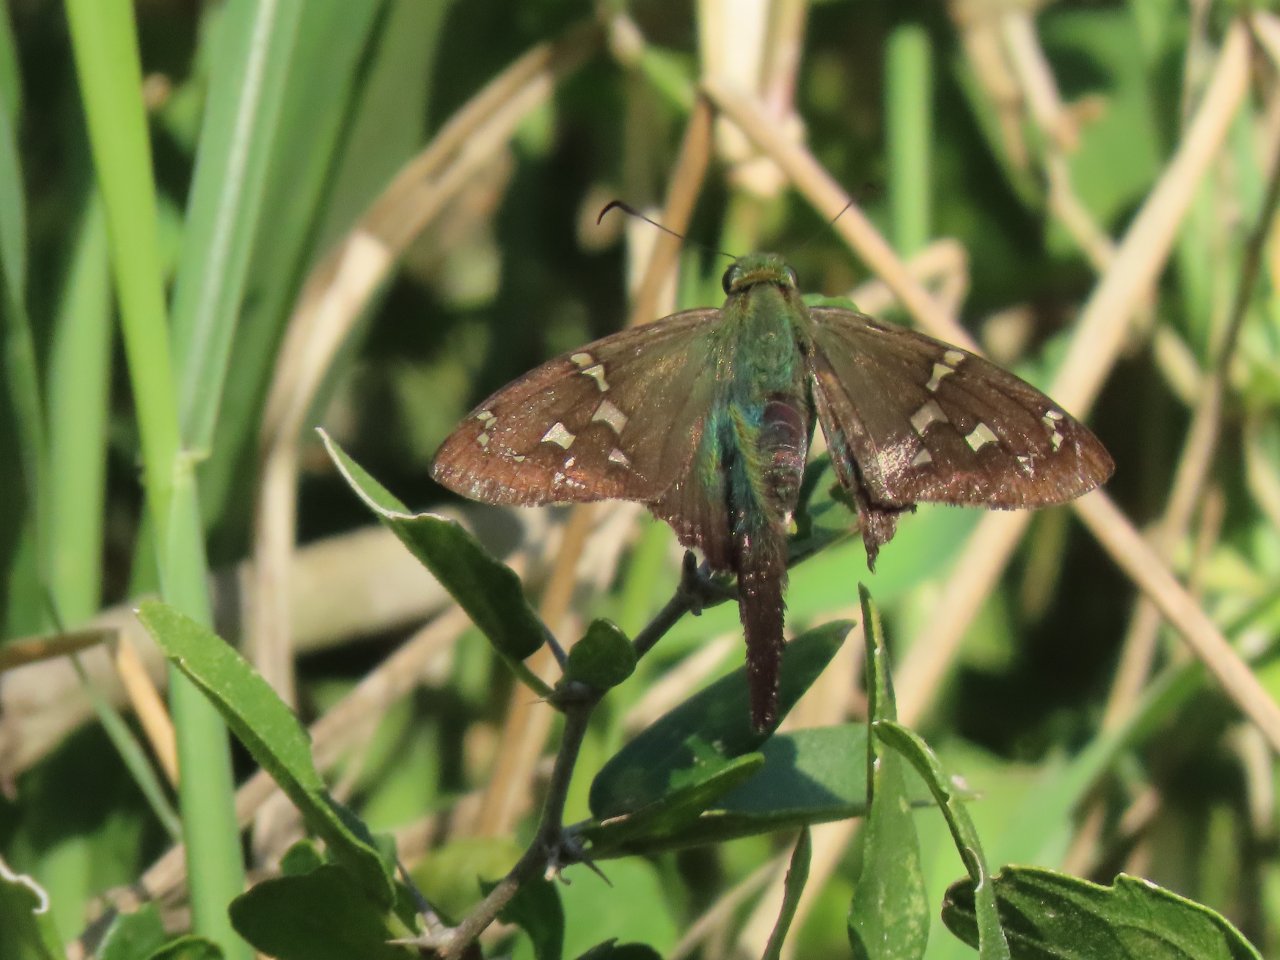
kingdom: Animalia
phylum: Arthropoda
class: Insecta
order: Lepidoptera
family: Hesperiidae
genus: Urbanus
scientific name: Urbanus esmeraldus
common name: Esmeralda Longtail
